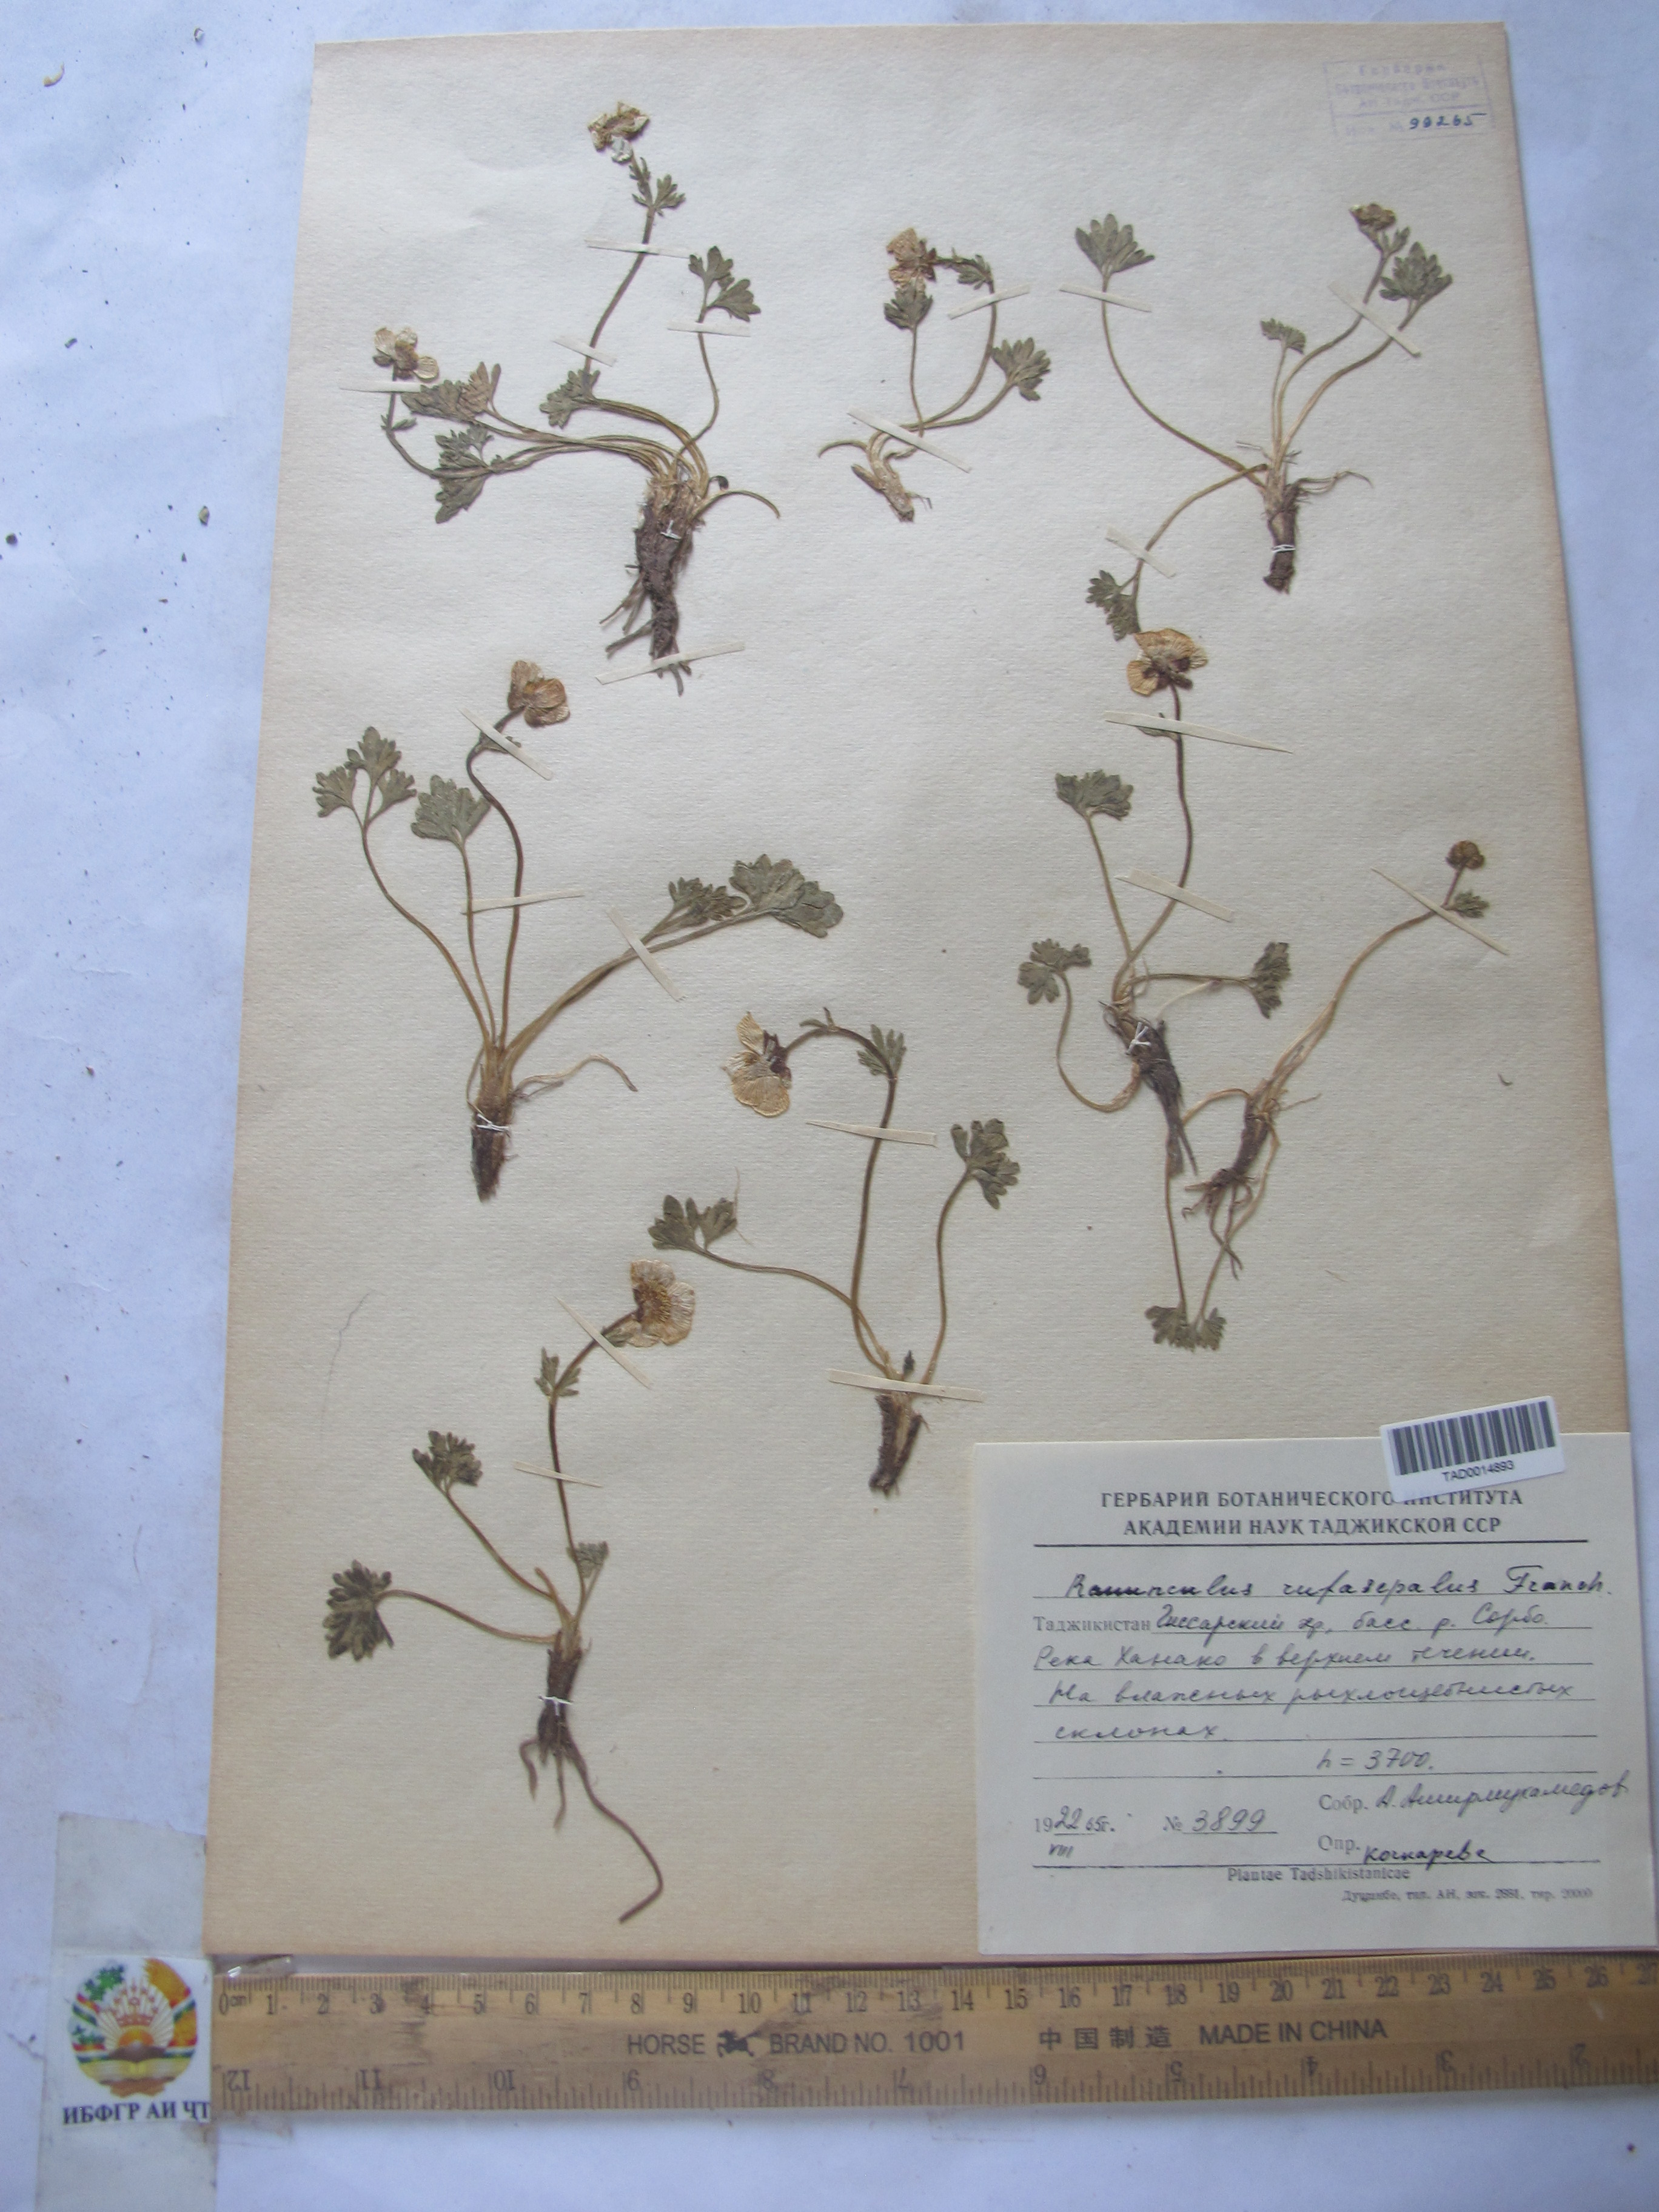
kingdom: Plantae
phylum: Tracheophyta
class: Magnoliopsida
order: Ranunculales
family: Ranunculaceae
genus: Ranunculus
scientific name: Ranunculus rufosepalus
